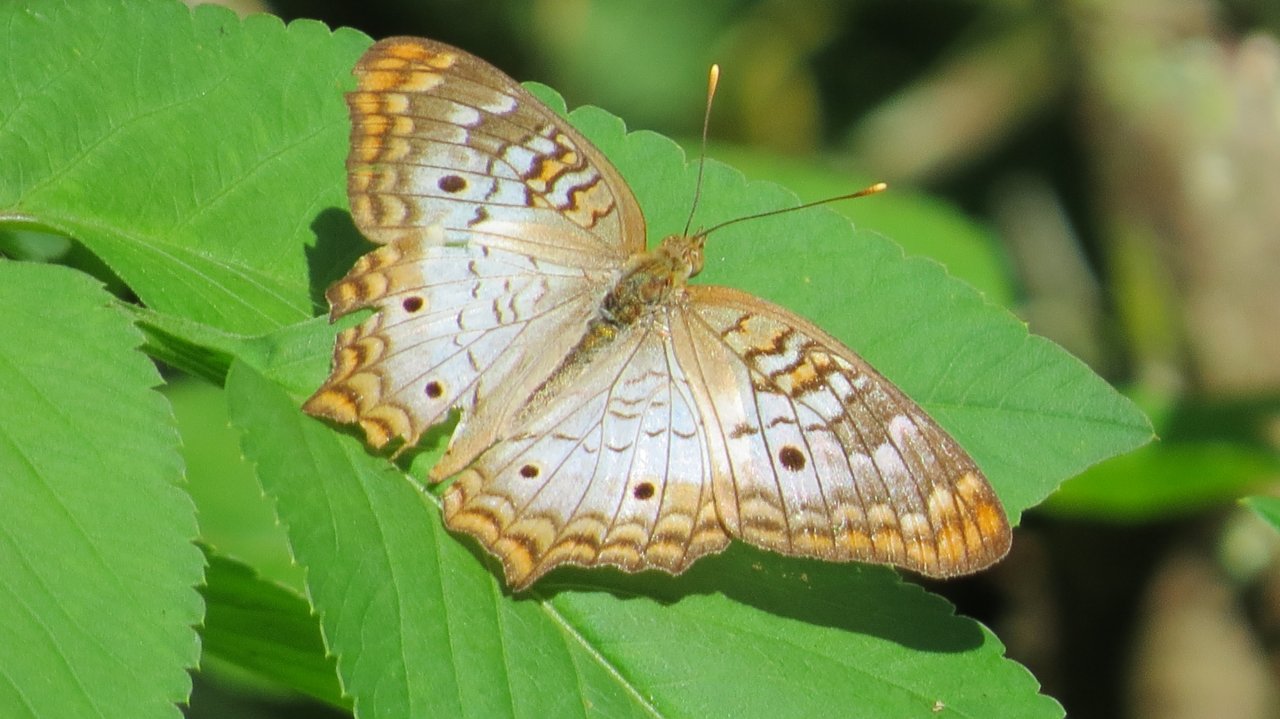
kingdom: Animalia
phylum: Arthropoda
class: Insecta
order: Lepidoptera
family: Nymphalidae
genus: Anartia
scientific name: Anartia jatrophae
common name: White Peacock
